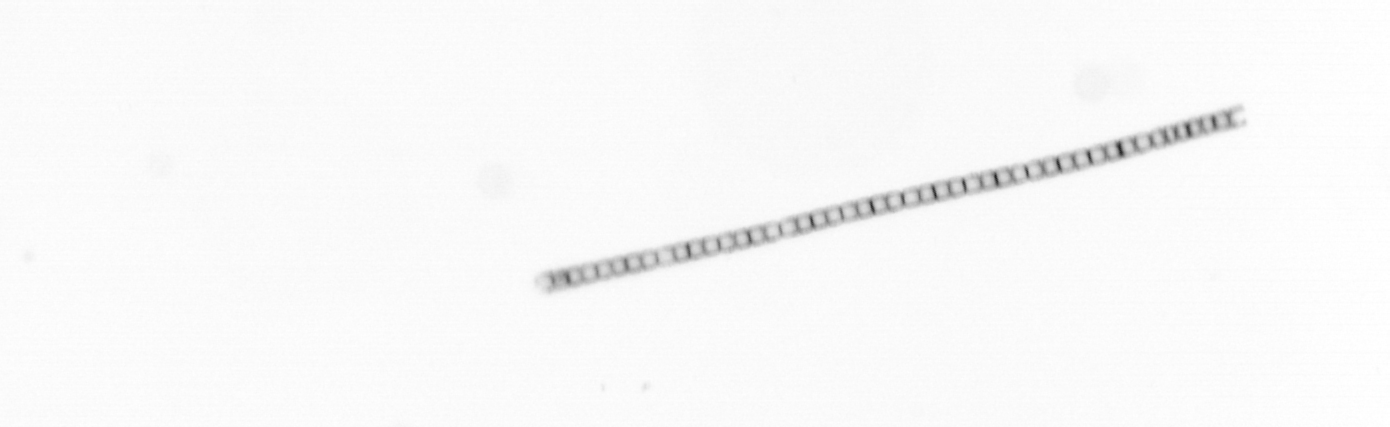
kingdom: Chromista
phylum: Ochrophyta
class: Bacillariophyceae
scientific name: Bacillariophyceae
